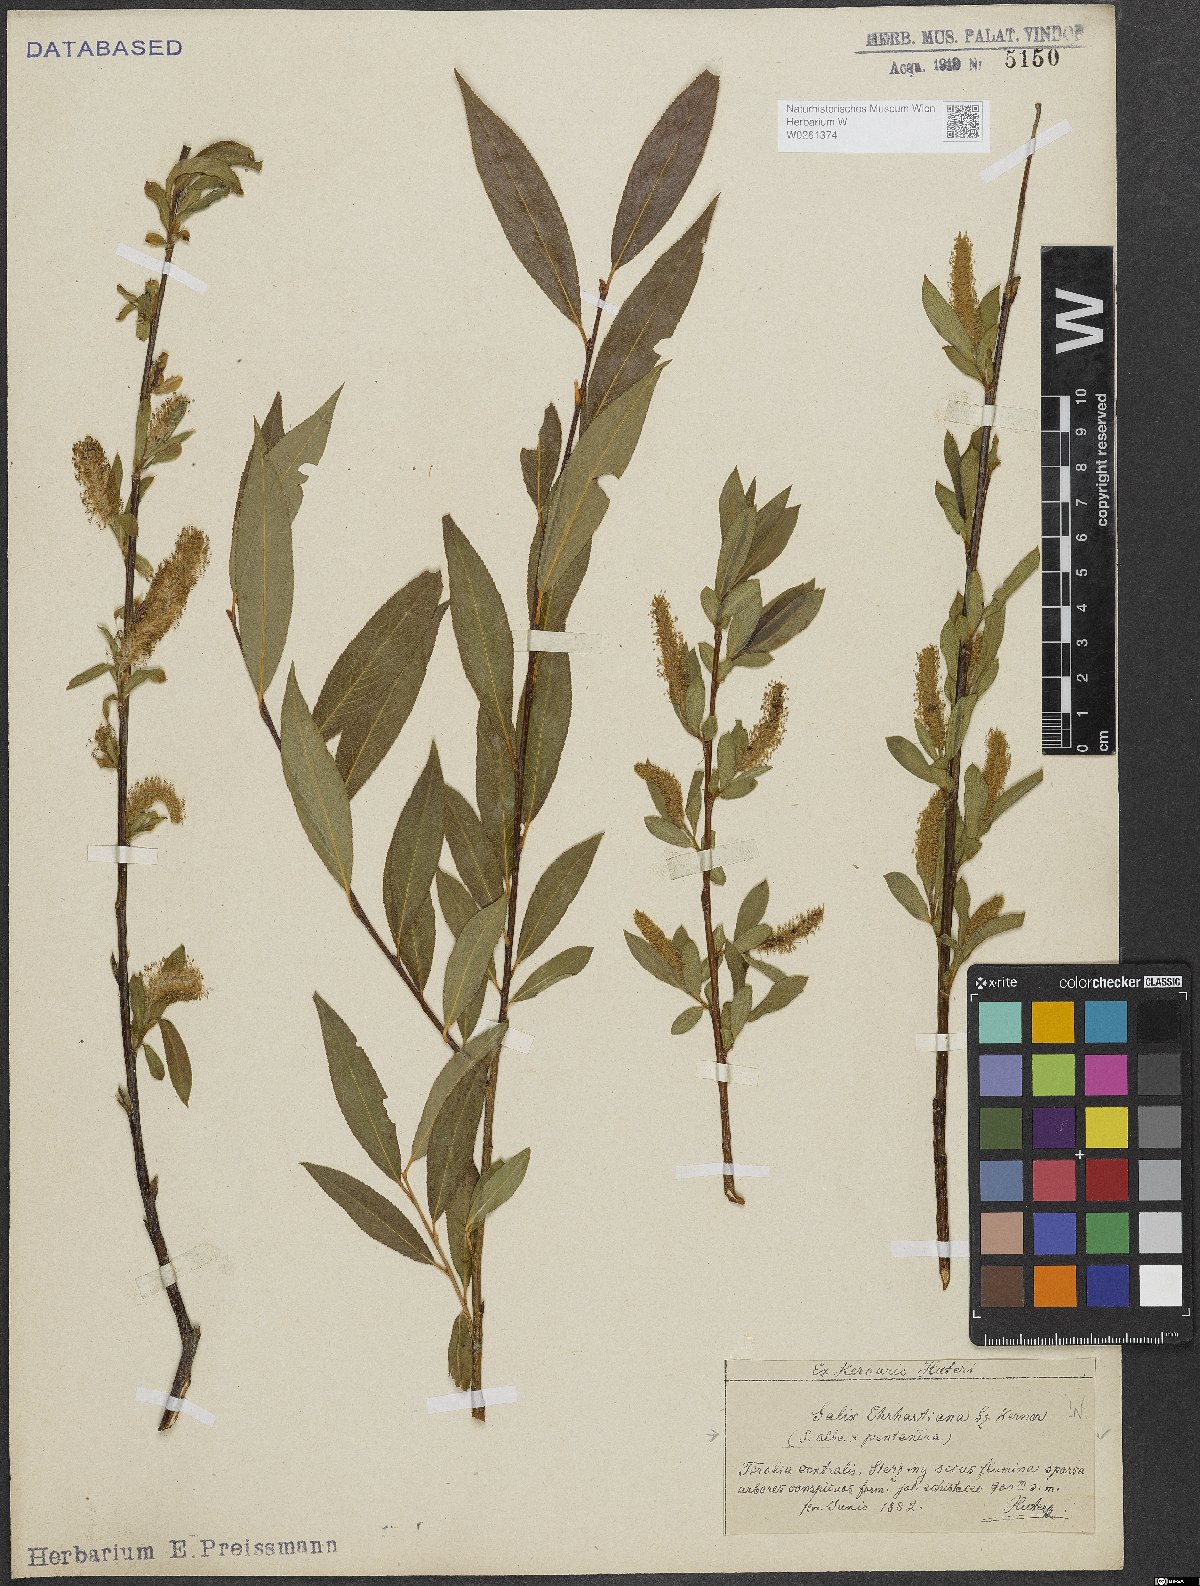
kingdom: Plantae
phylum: Tracheophyta
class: Magnoliopsida
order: Malpighiales
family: Salicaceae
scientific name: Salicaceae
